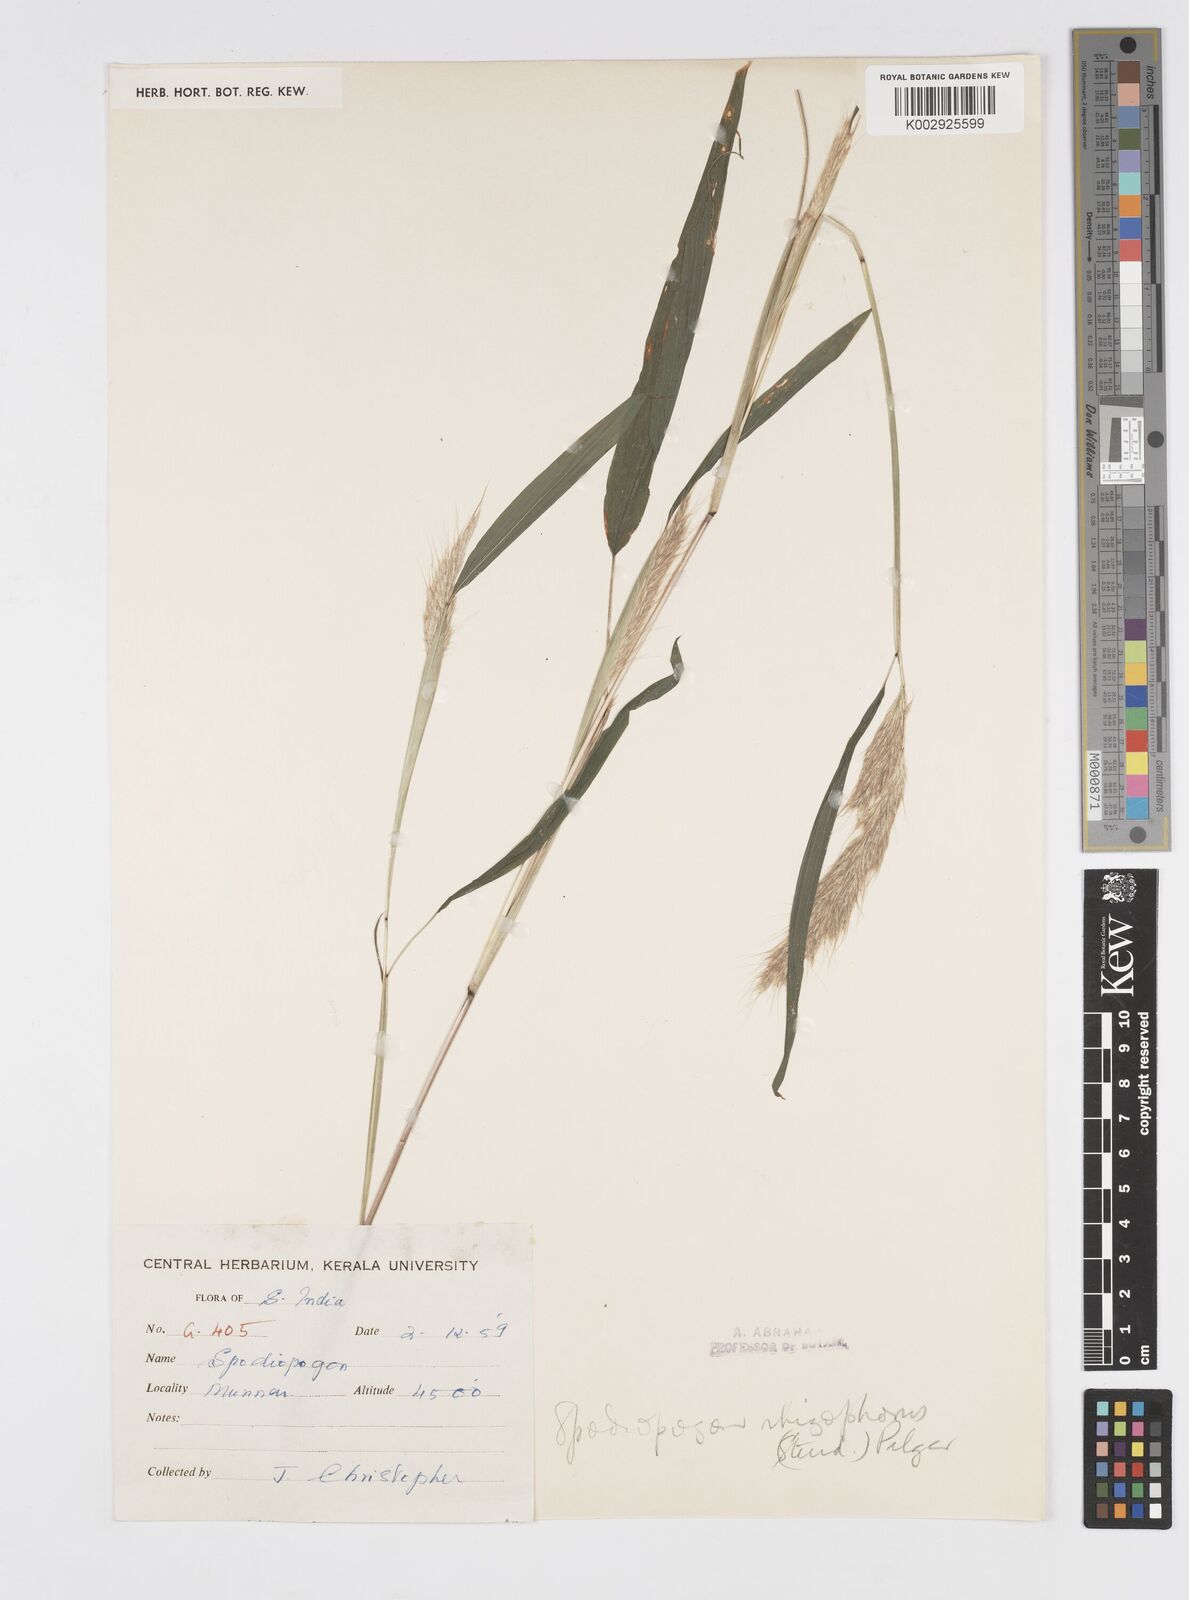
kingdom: Plantae
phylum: Tracheophyta
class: Liliopsida
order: Poales
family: Poaceae
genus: Spodiopogon
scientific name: Spodiopogon rhizophorus
